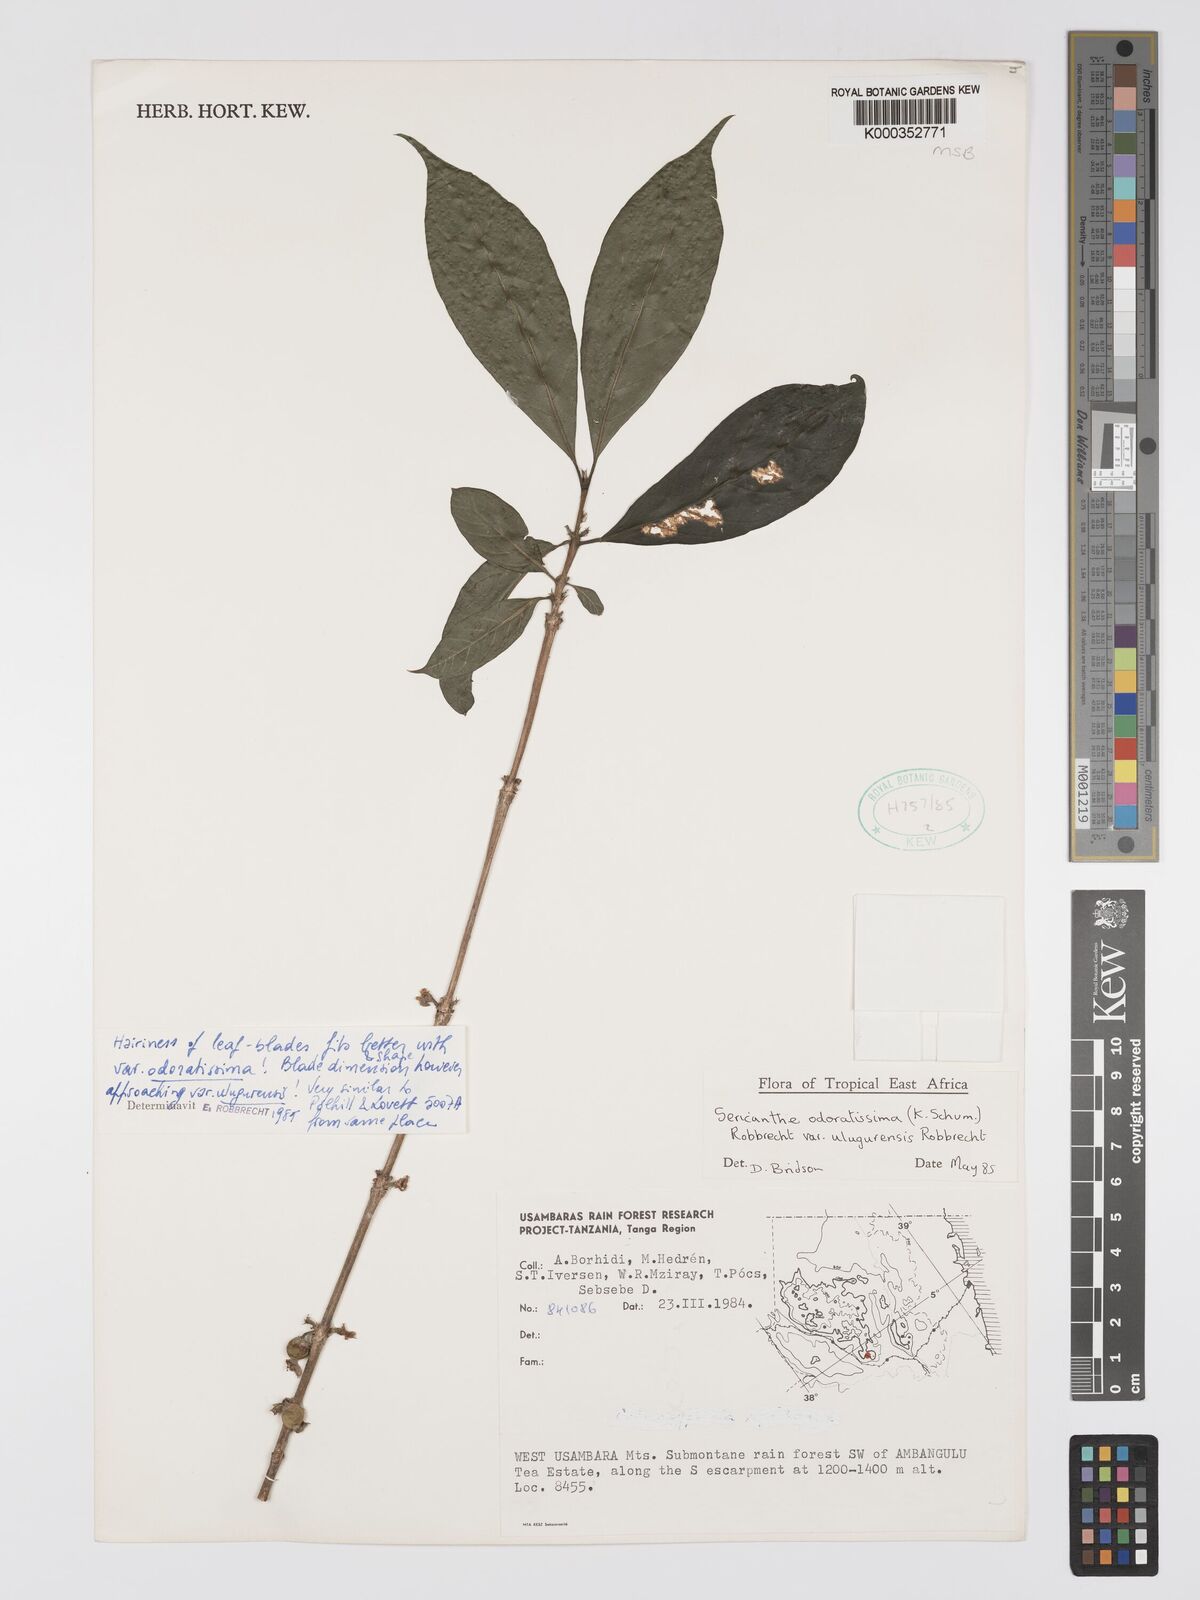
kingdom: Plantae
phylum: Tracheophyta
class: Magnoliopsida
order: Gentianales
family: Rubiaceae
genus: Sericanthe
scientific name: Sericanthe odoratissima
